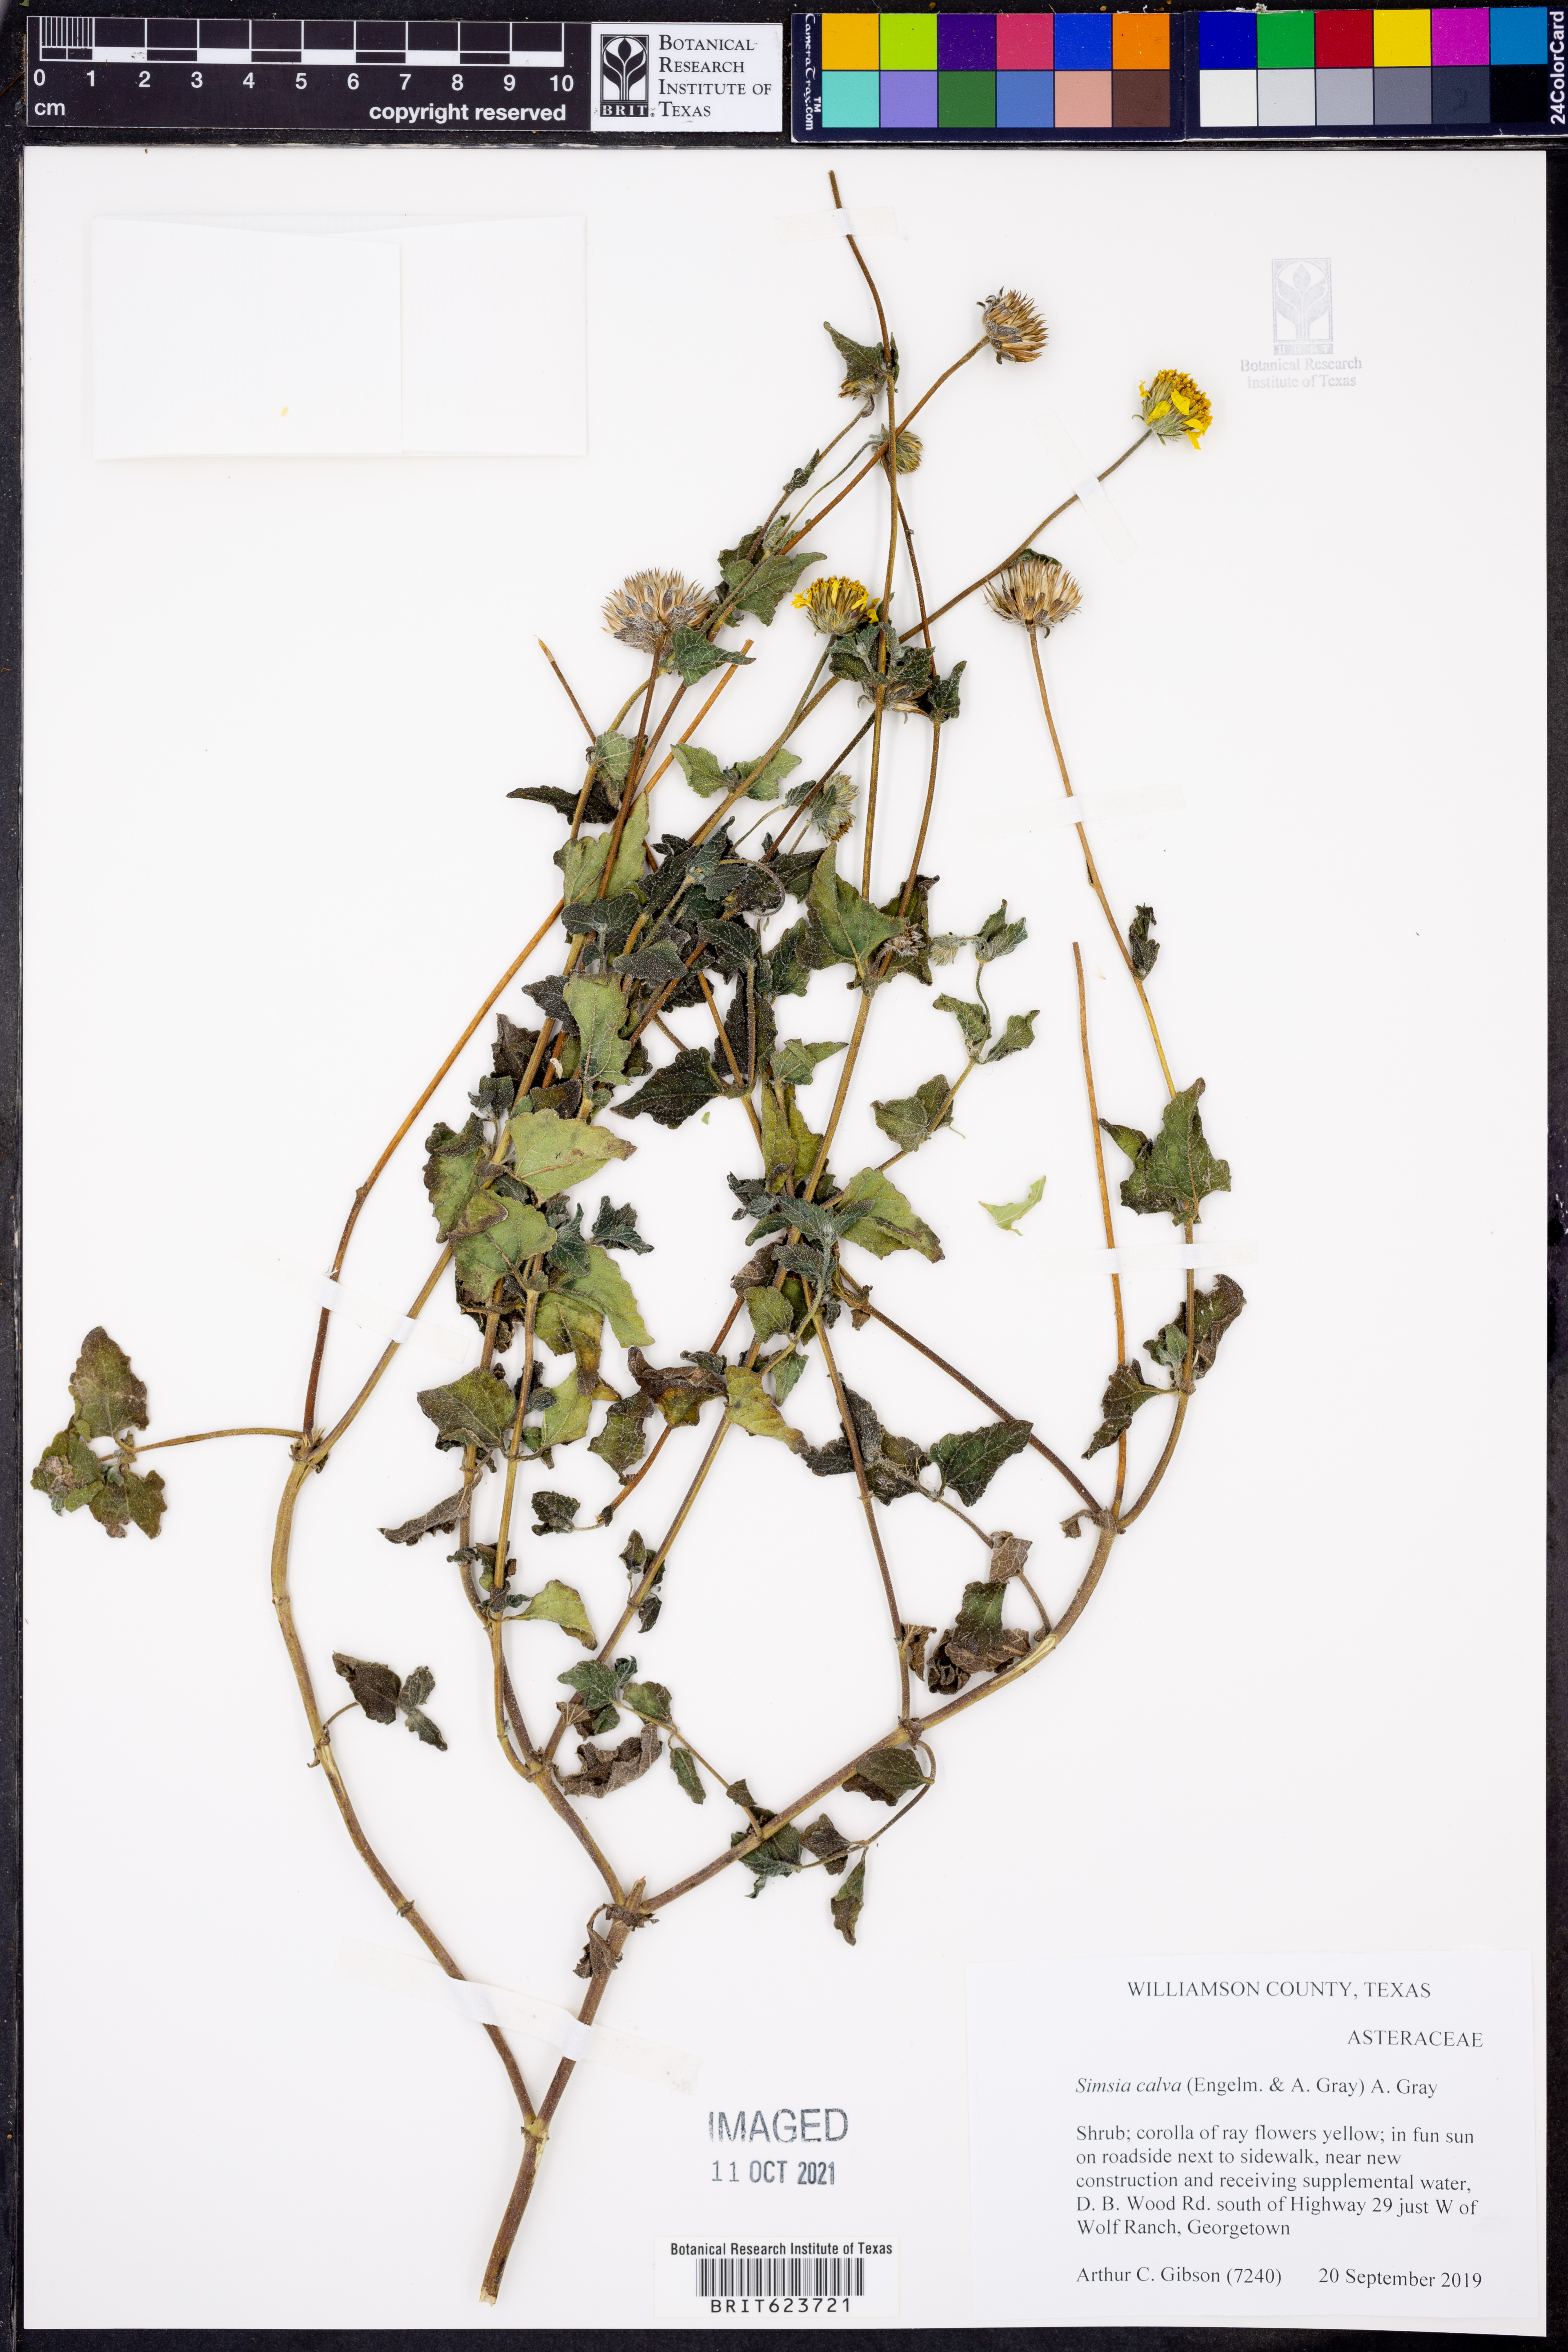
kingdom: Plantae
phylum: Tracheophyta
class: Magnoliopsida
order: Asterales
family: Asteraceae
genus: Simsia
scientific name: Simsia calva
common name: Awnless bush-sunflower
